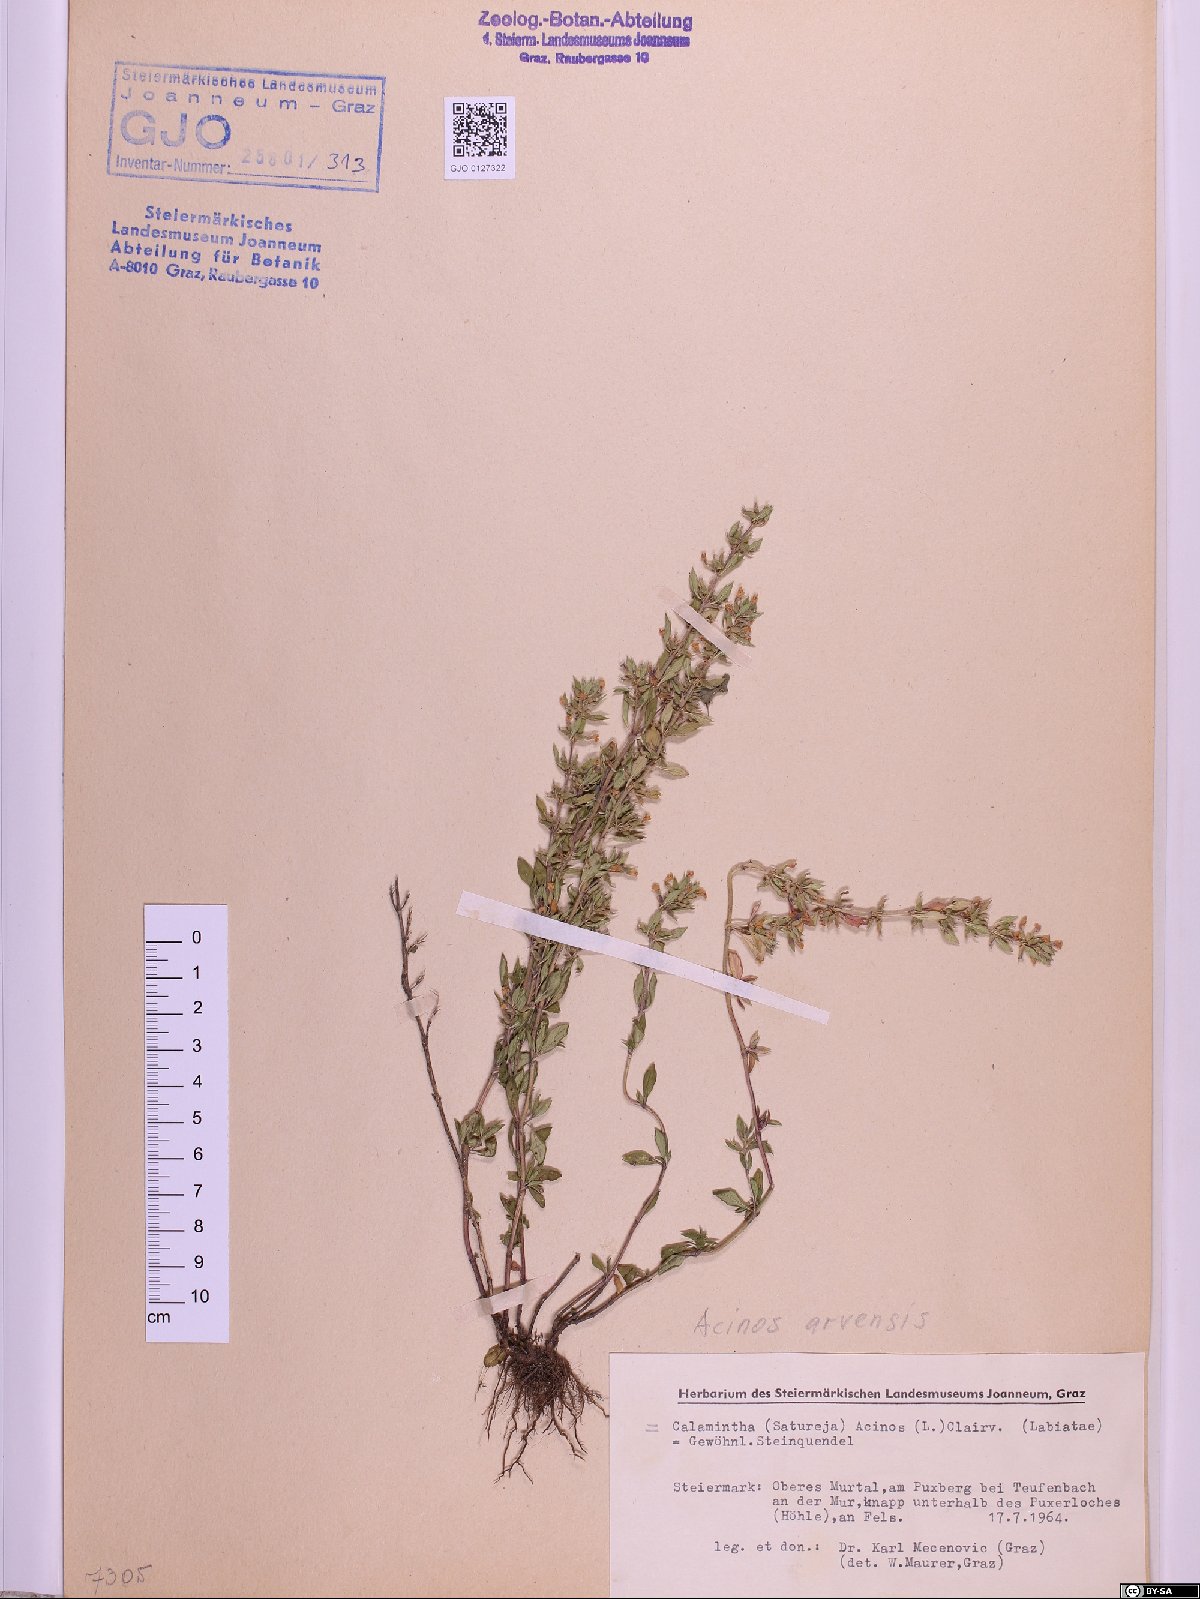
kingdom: Plantae
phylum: Tracheophyta
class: Magnoliopsida
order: Lamiales
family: Lamiaceae
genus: Clinopodium
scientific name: Clinopodium acinos
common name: Basil thyme
